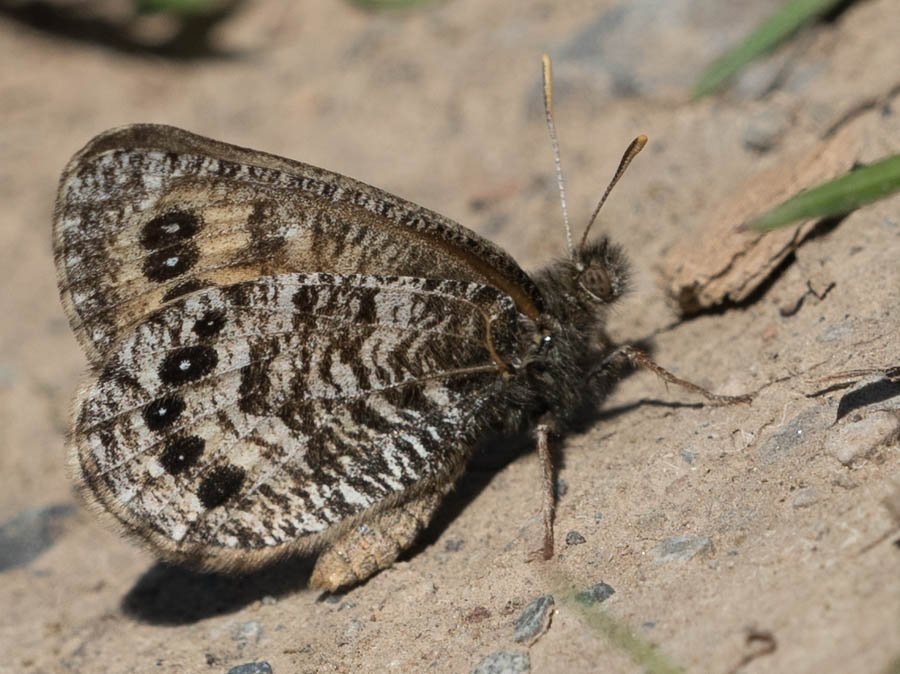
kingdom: Animalia
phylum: Arthropoda
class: Insecta
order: Lepidoptera
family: Nymphalidae
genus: Oeneis
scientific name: Oeneis uhleri
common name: Uhler's Arctic
